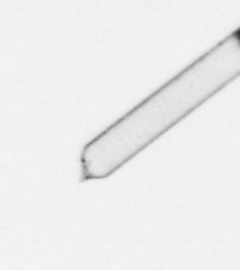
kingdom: Chromista
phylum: Ochrophyta
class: Bacillariophyceae
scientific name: Bacillariophyceae
